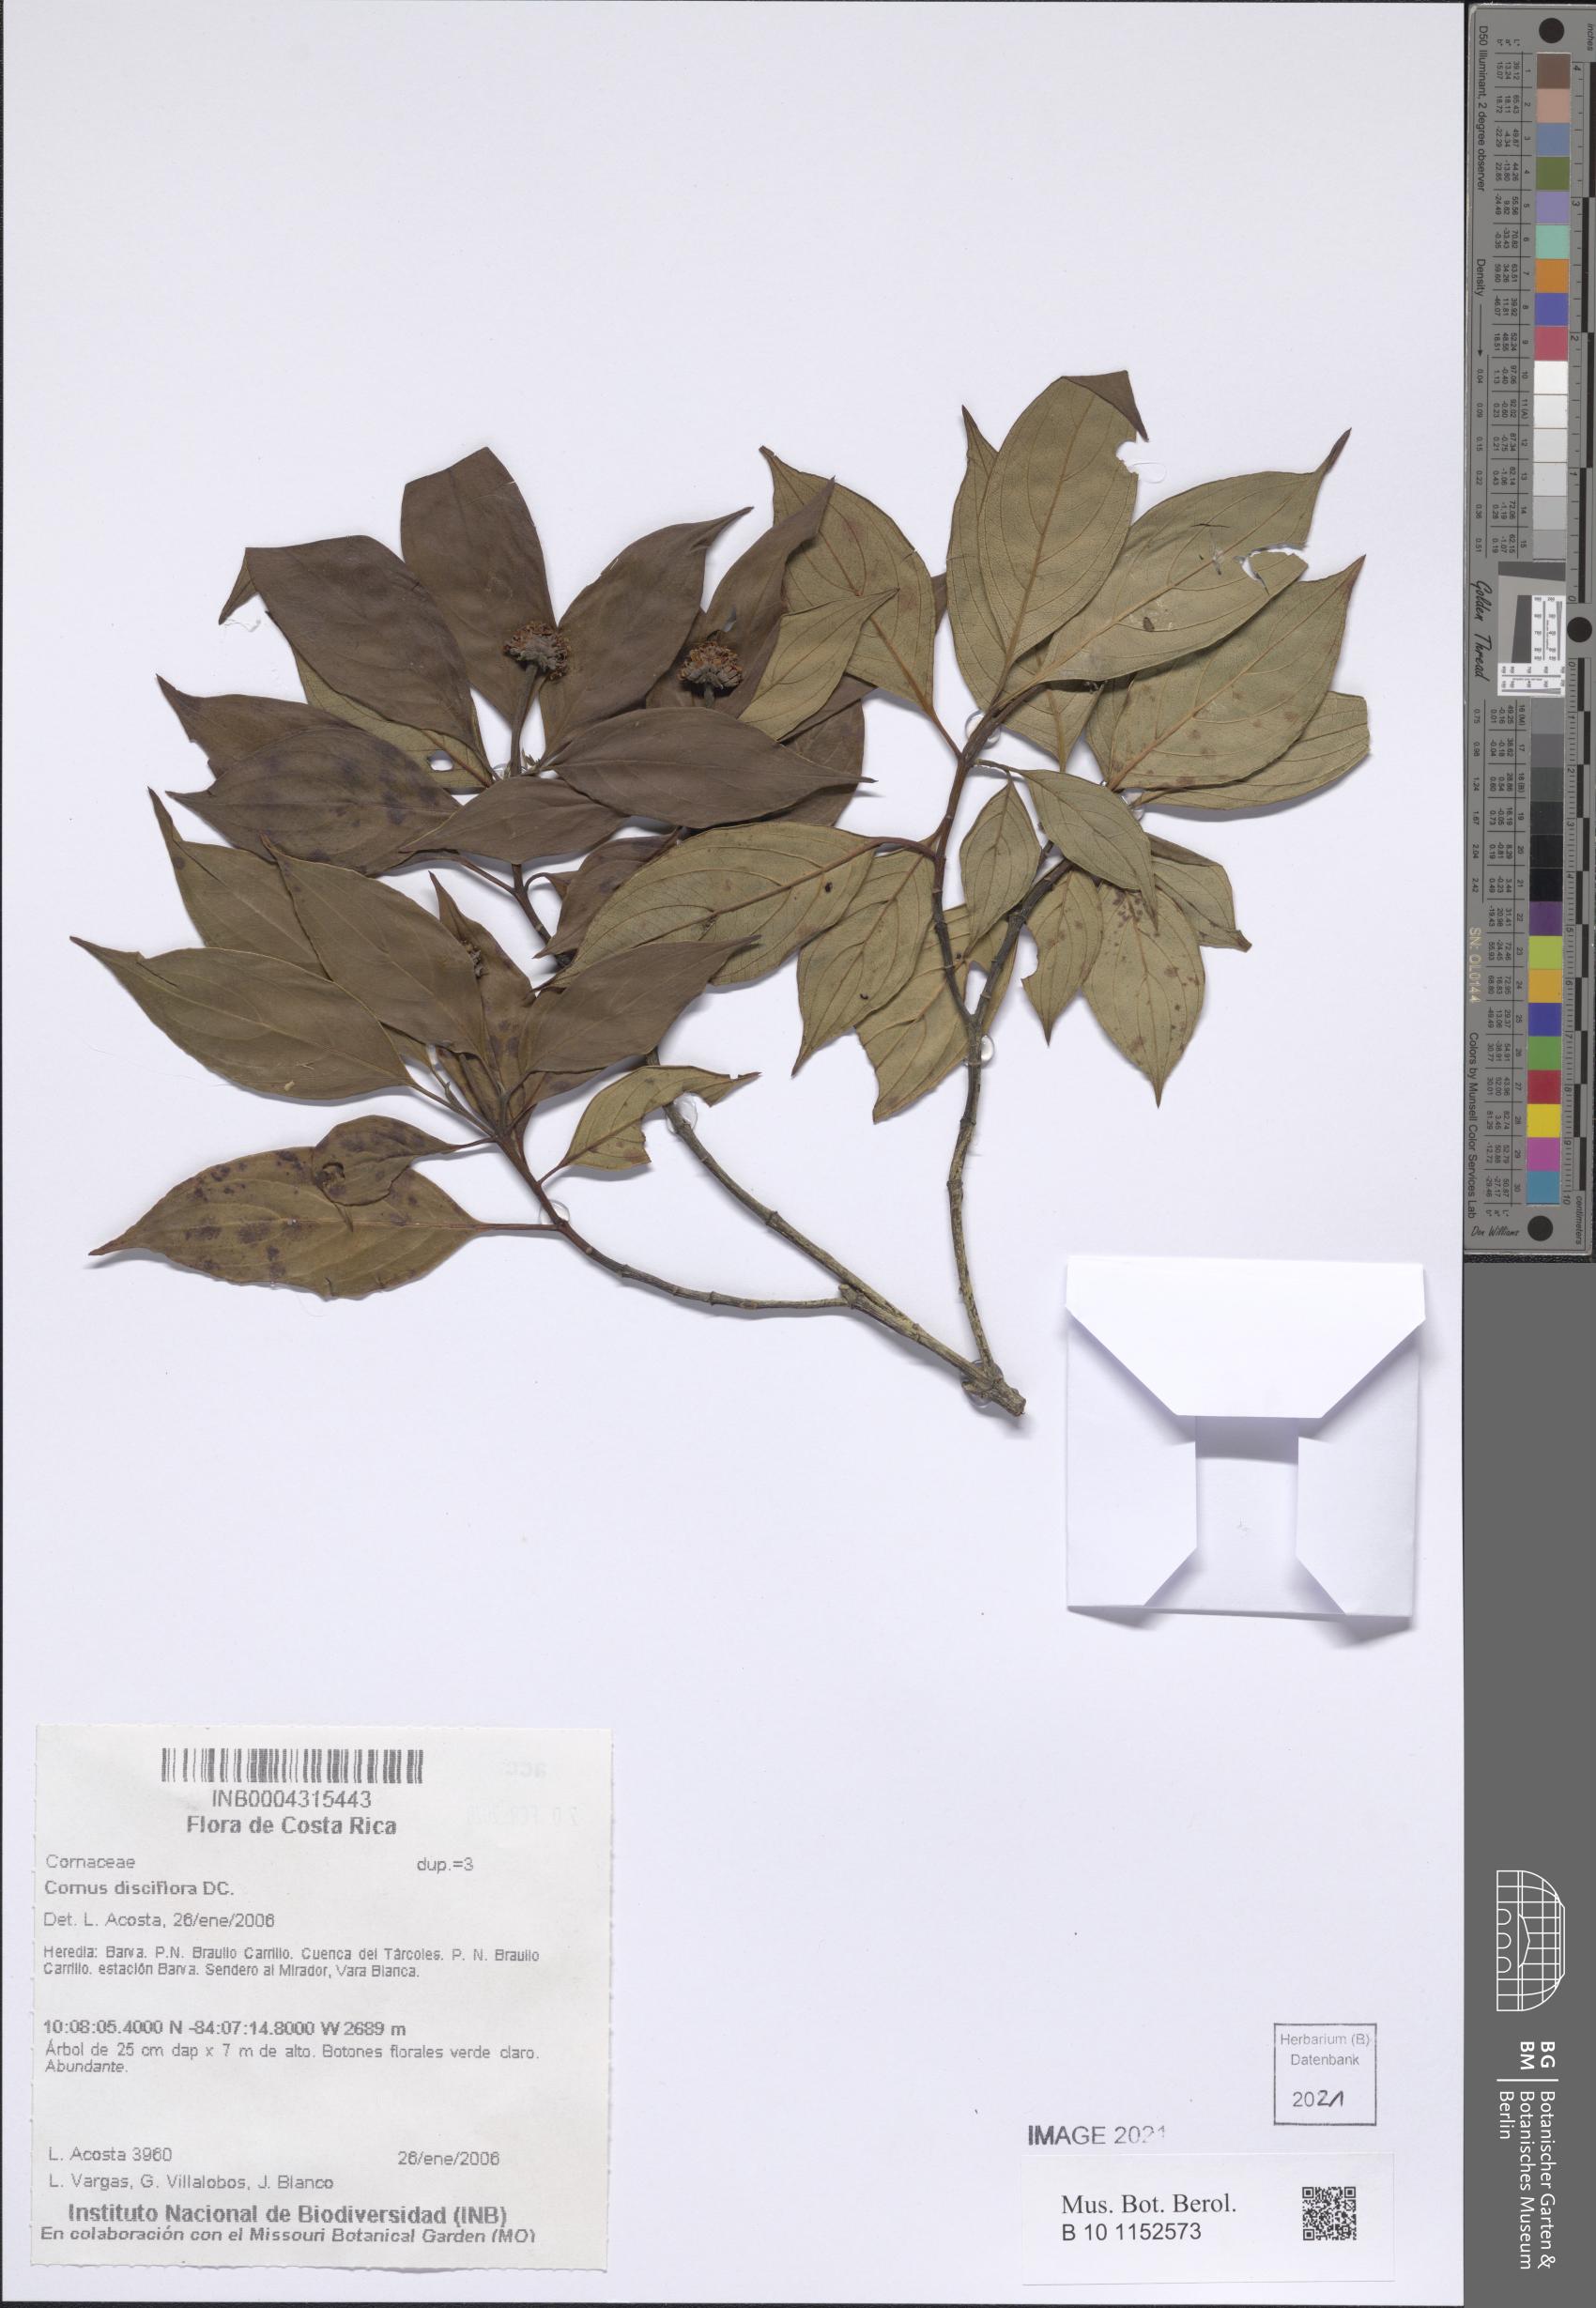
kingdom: Plantae
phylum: Tracheophyta
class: Magnoliopsida
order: Cornales
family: Cornaceae
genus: Cornus
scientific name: Cornus disciflora
